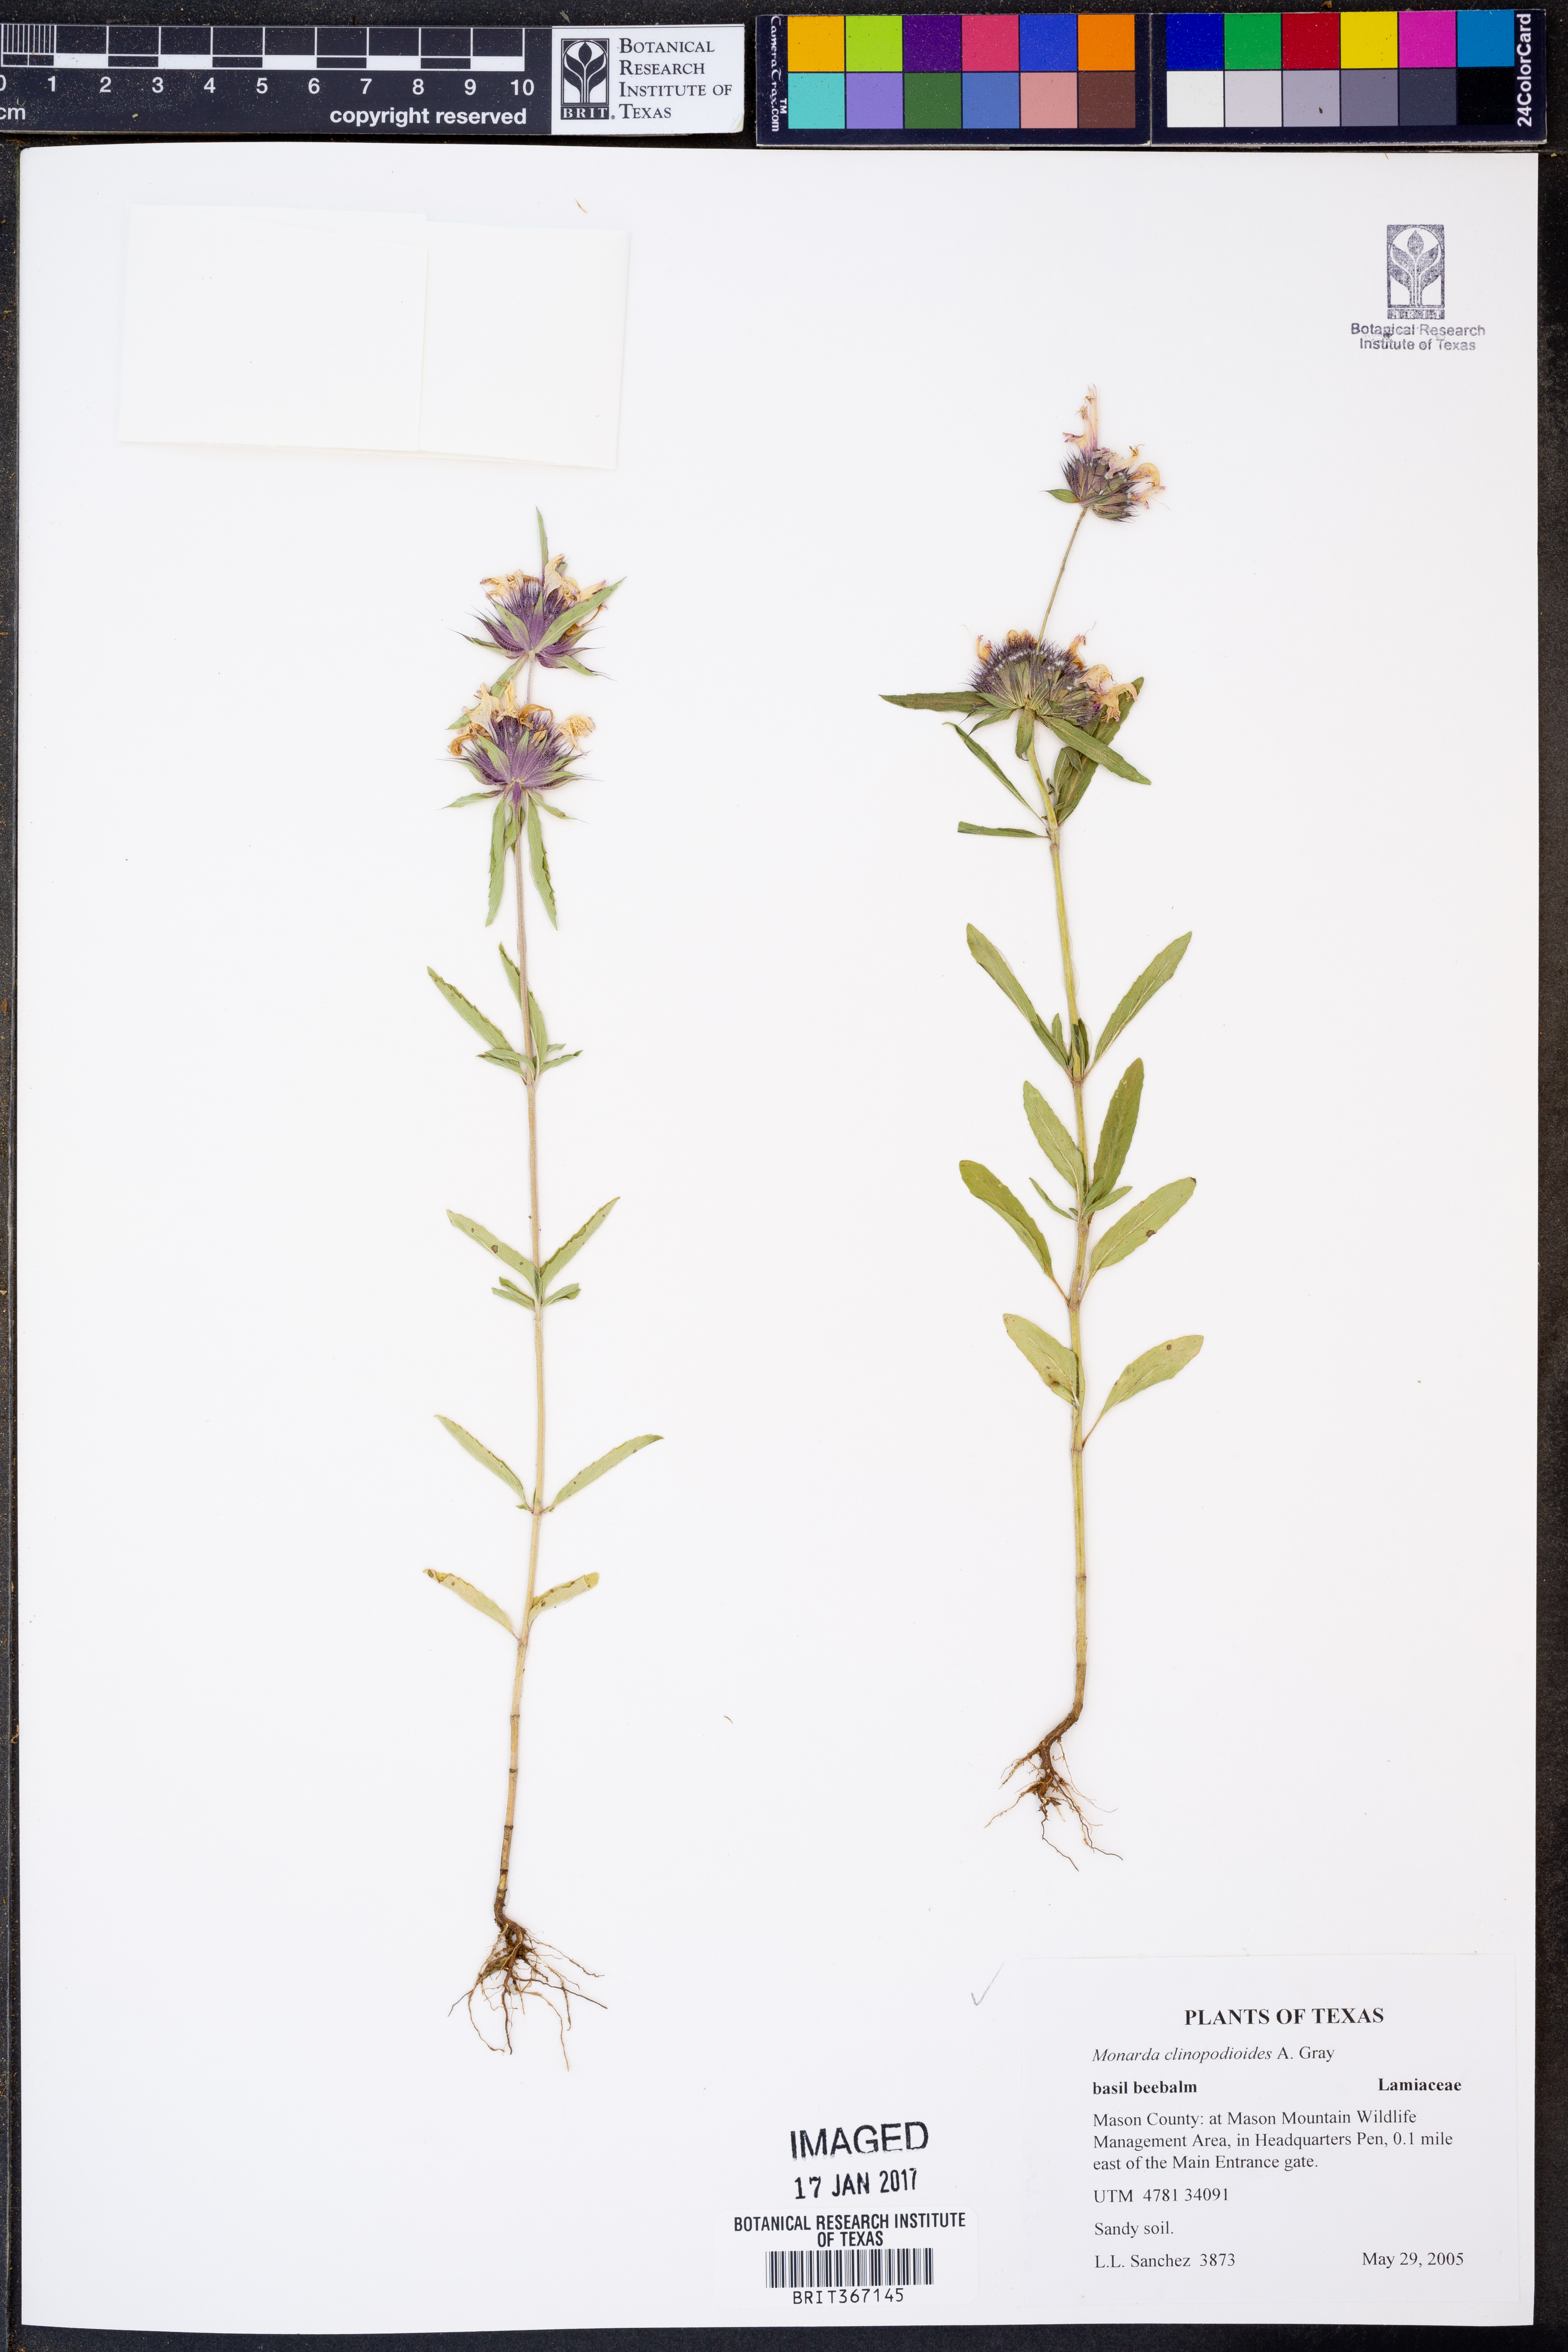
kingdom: Plantae
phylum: Tracheophyta
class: Magnoliopsida
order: Lamiales
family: Lamiaceae
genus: Monarda
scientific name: Monarda clinopodioides
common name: Basil beebalm
